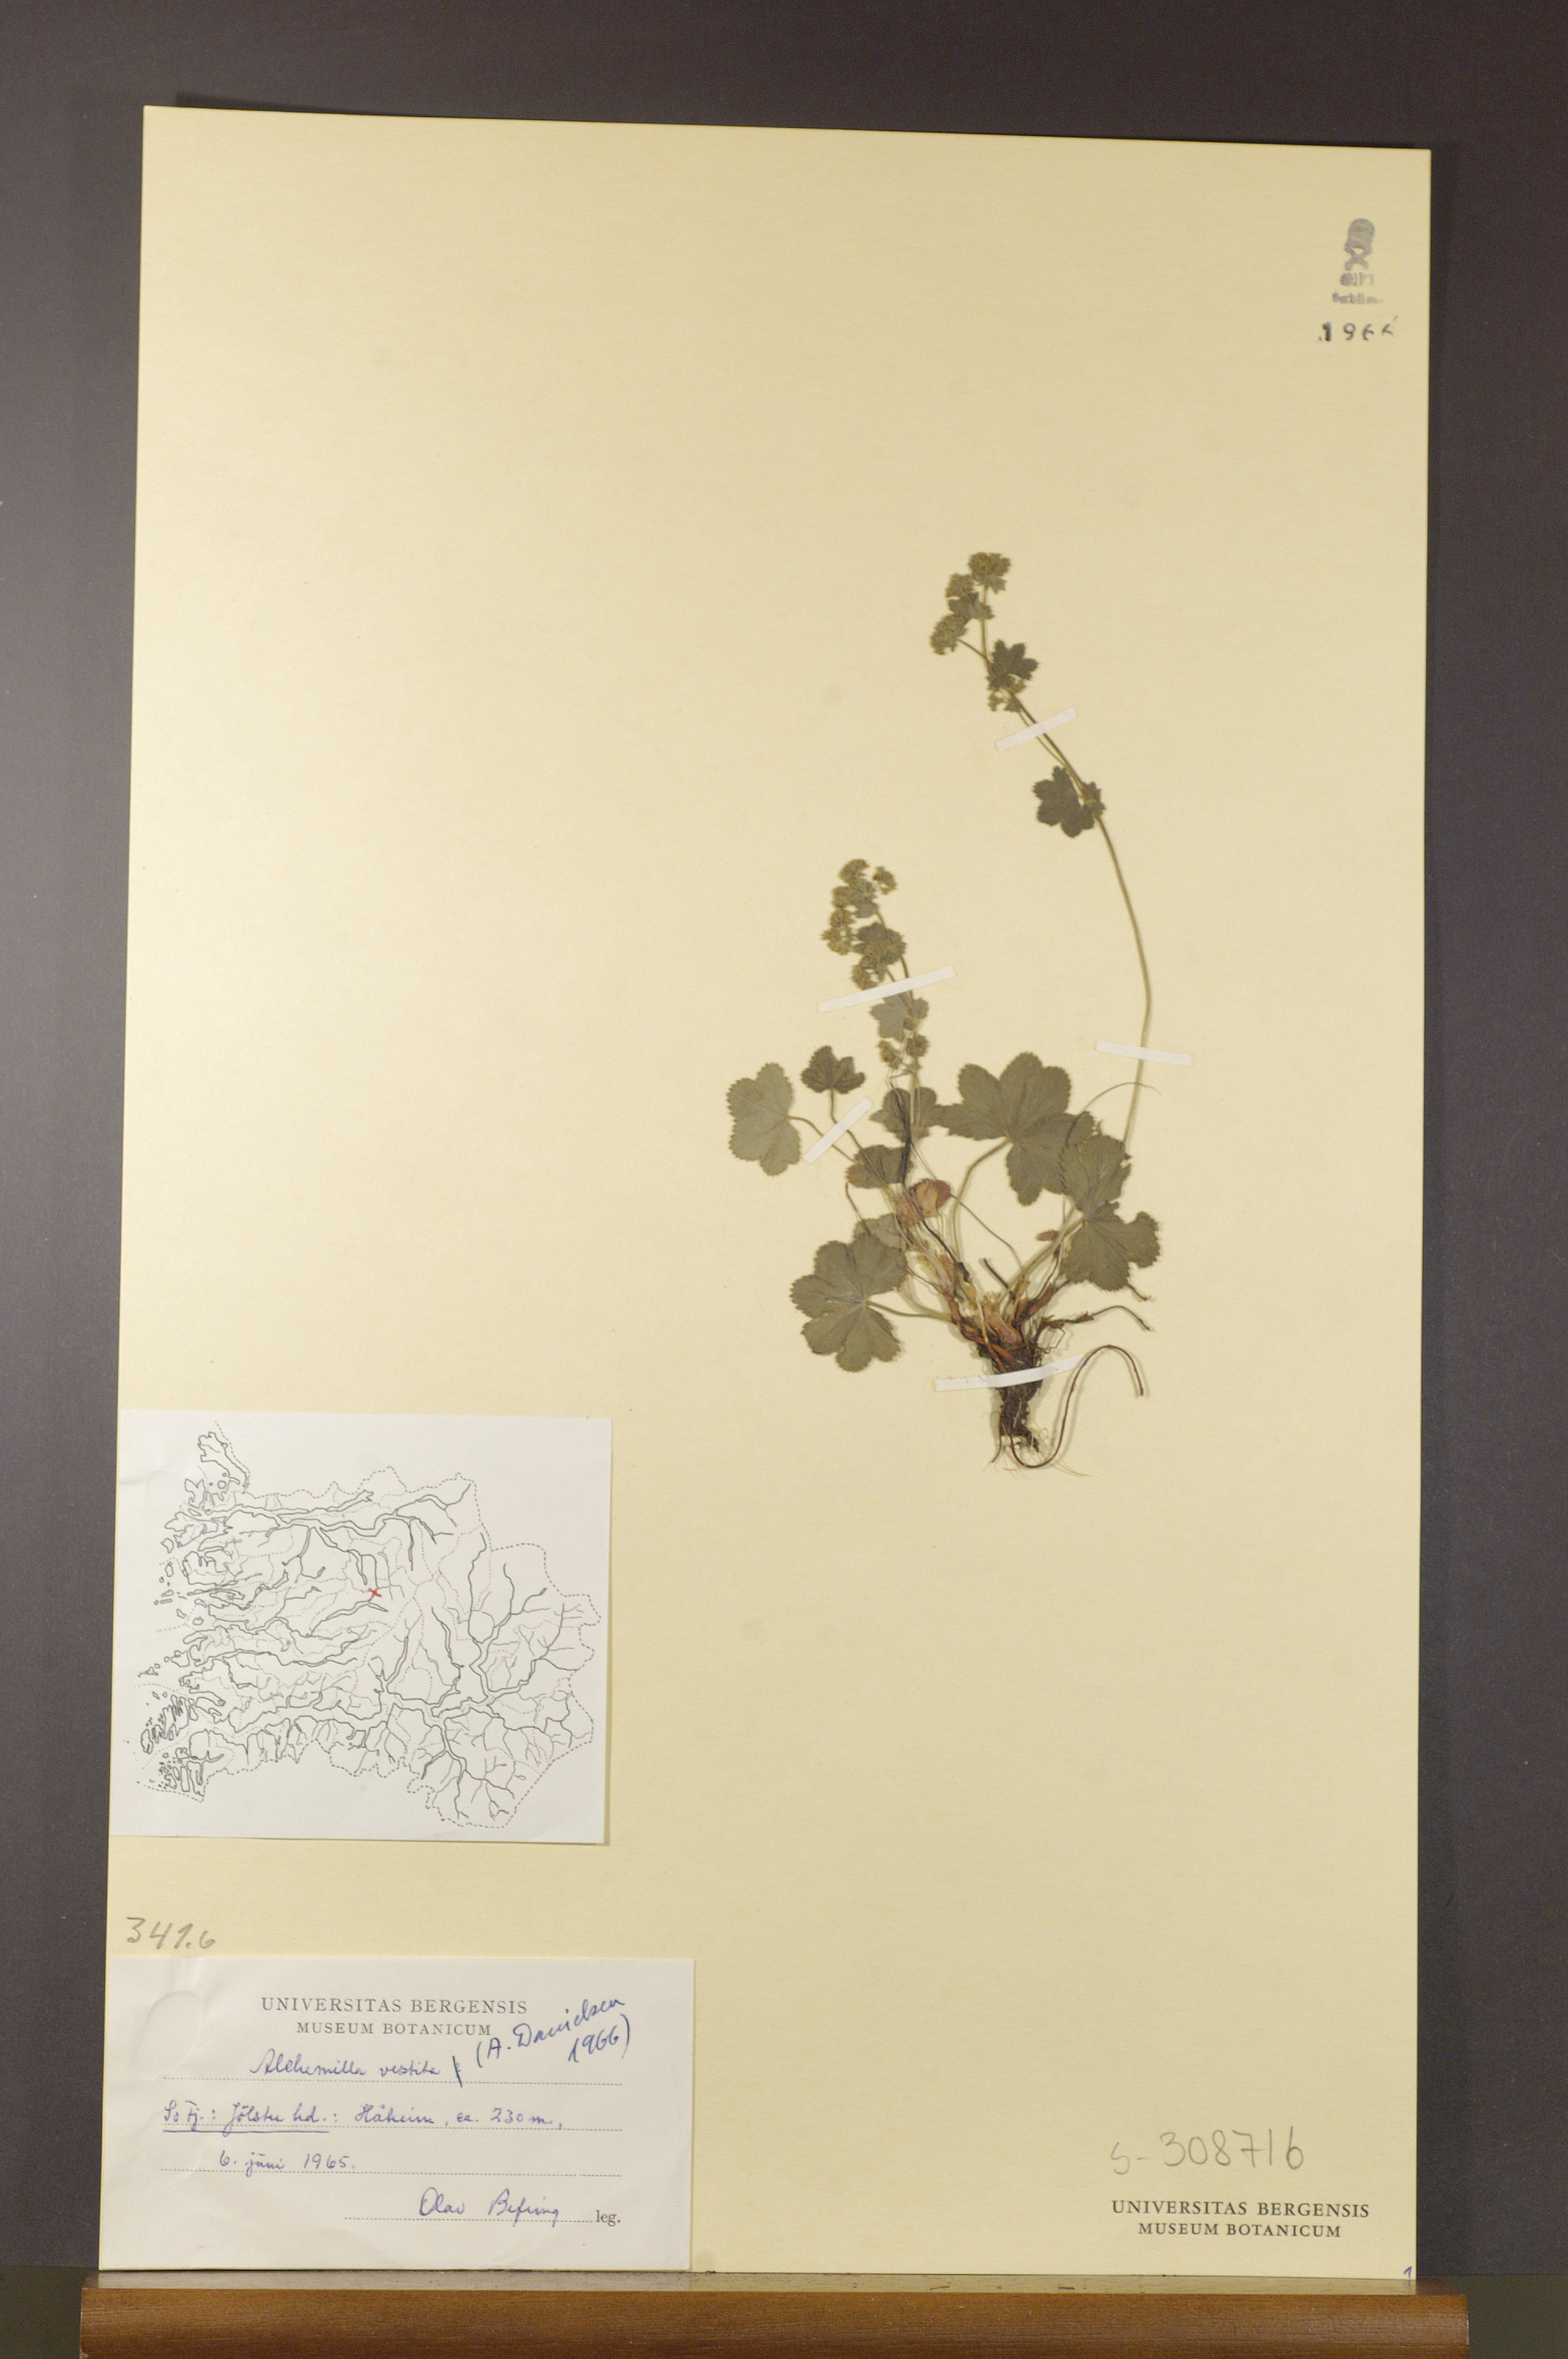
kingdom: Plantae
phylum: Tracheophyta
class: Magnoliopsida
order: Rosales
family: Rosaceae
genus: Alchemilla
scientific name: Alchemilla filicaulis
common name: Hairy lady's-mantle
